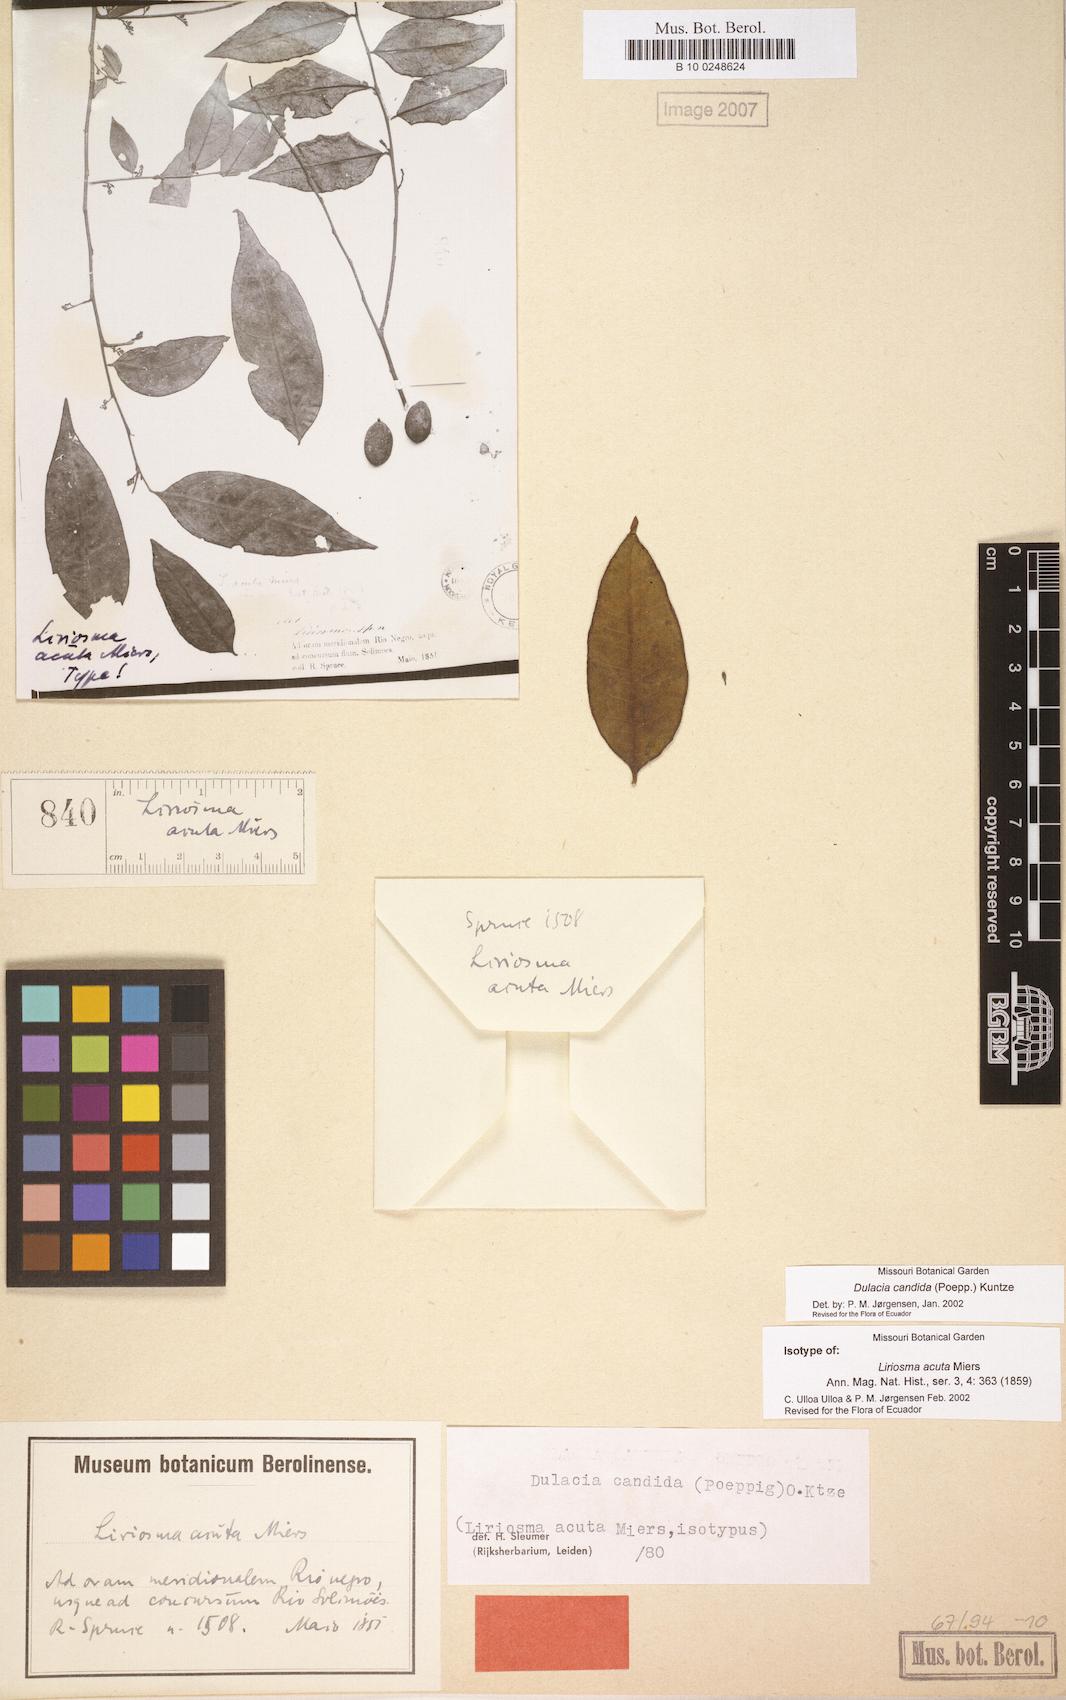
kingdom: Plantae
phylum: Tracheophyta
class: Magnoliopsida
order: Santalales
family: Olacaceae
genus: Dulacia
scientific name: Dulacia candida
